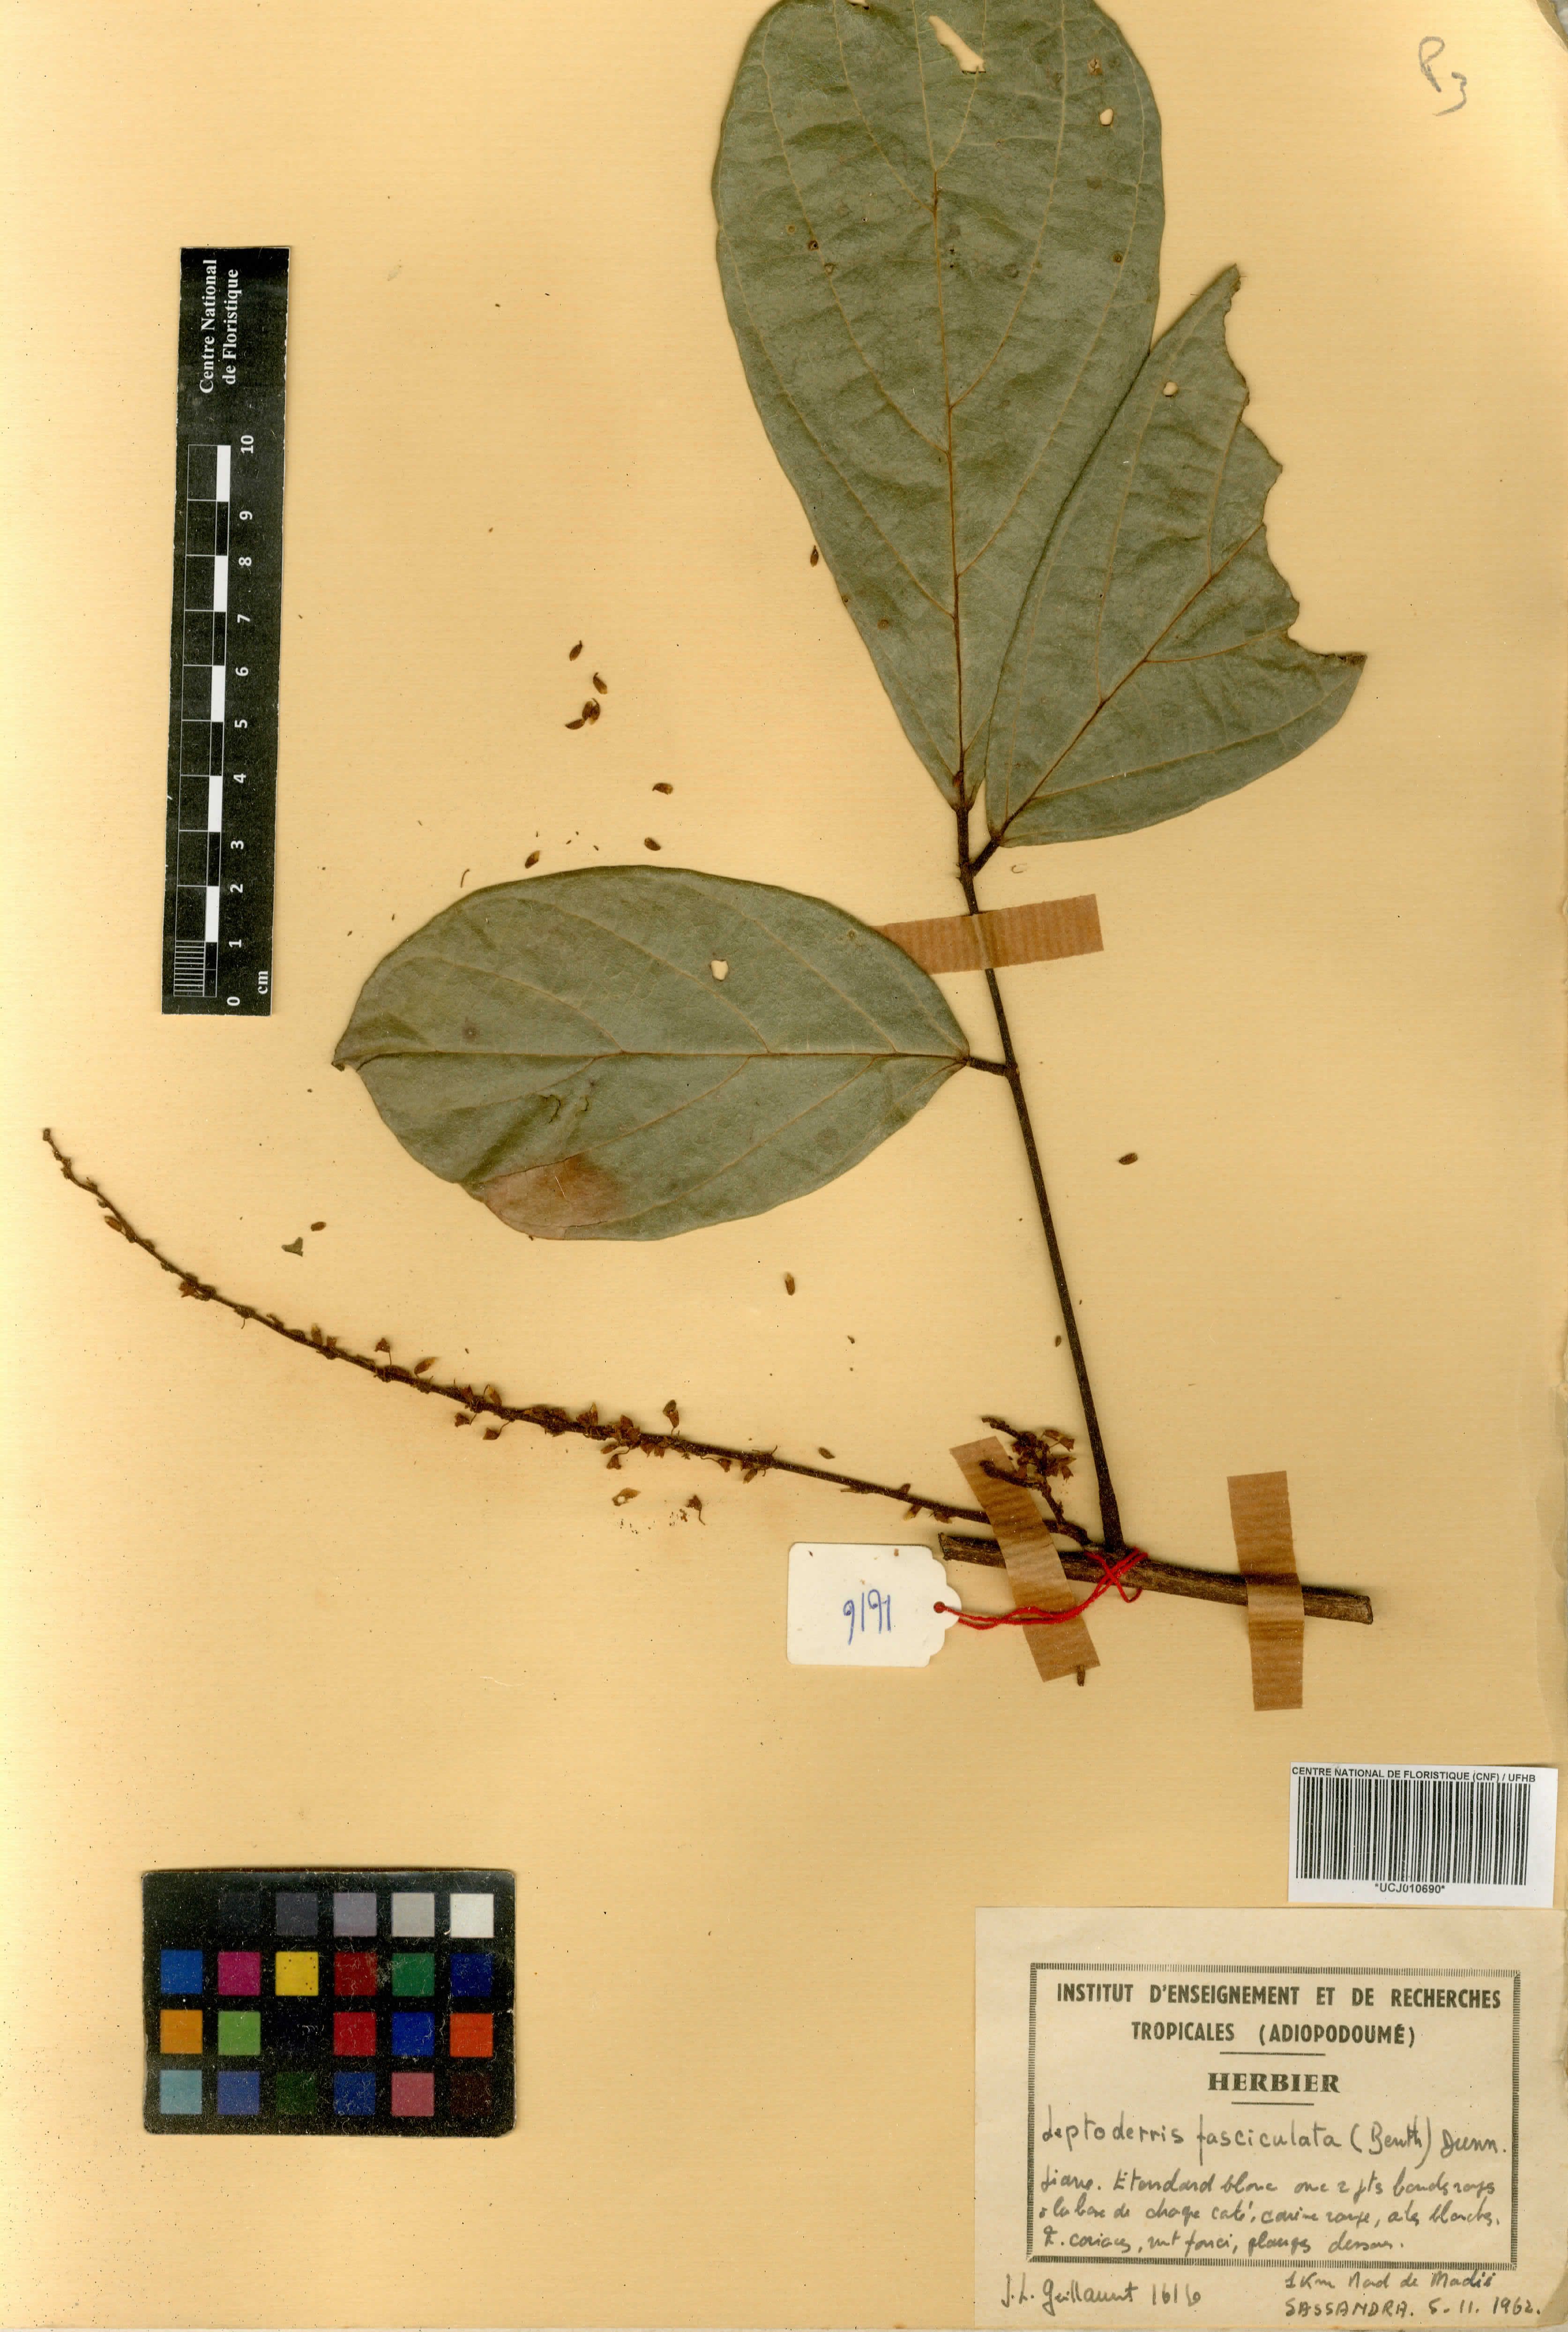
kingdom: Plantae
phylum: Tracheophyta
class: Magnoliopsida
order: Fabales
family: Fabaceae
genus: Leptoderris
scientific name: Leptoderris fasciculata
